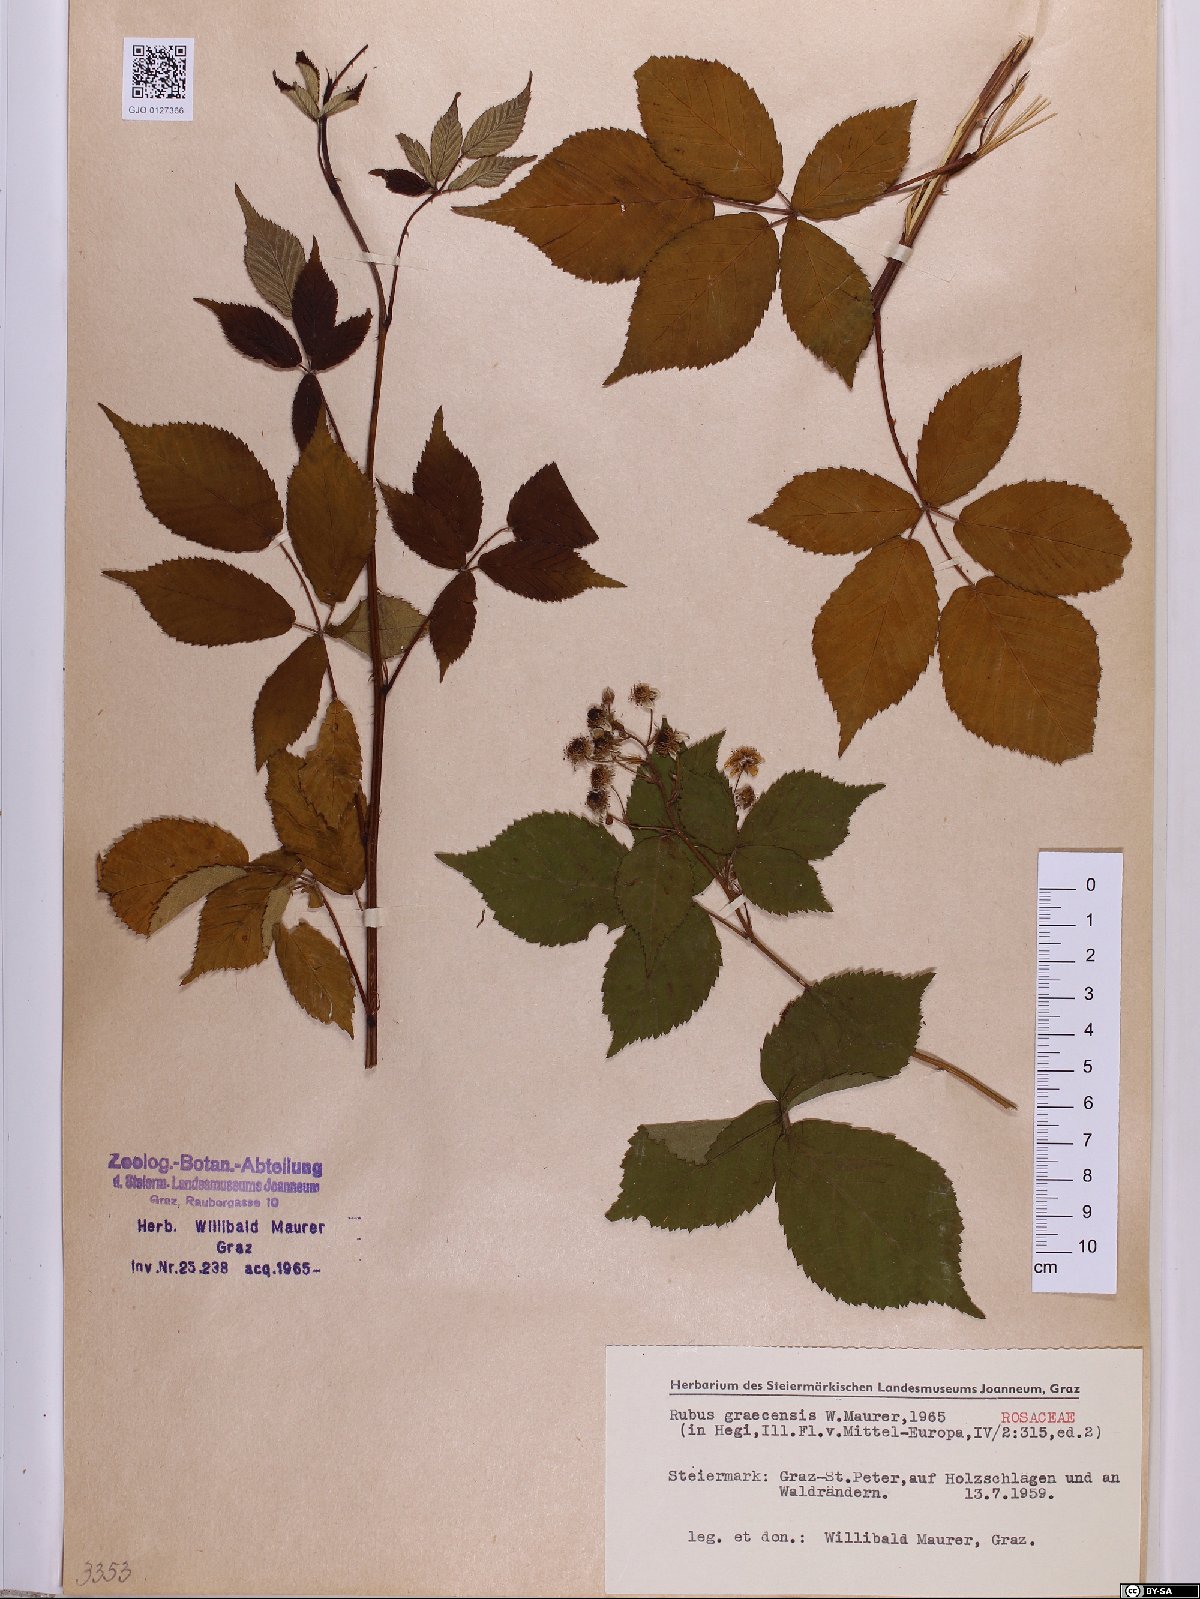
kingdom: Plantae
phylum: Tracheophyta
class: Magnoliopsida
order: Rosales
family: Rosaceae
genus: Rubus
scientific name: Rubus graecensis
